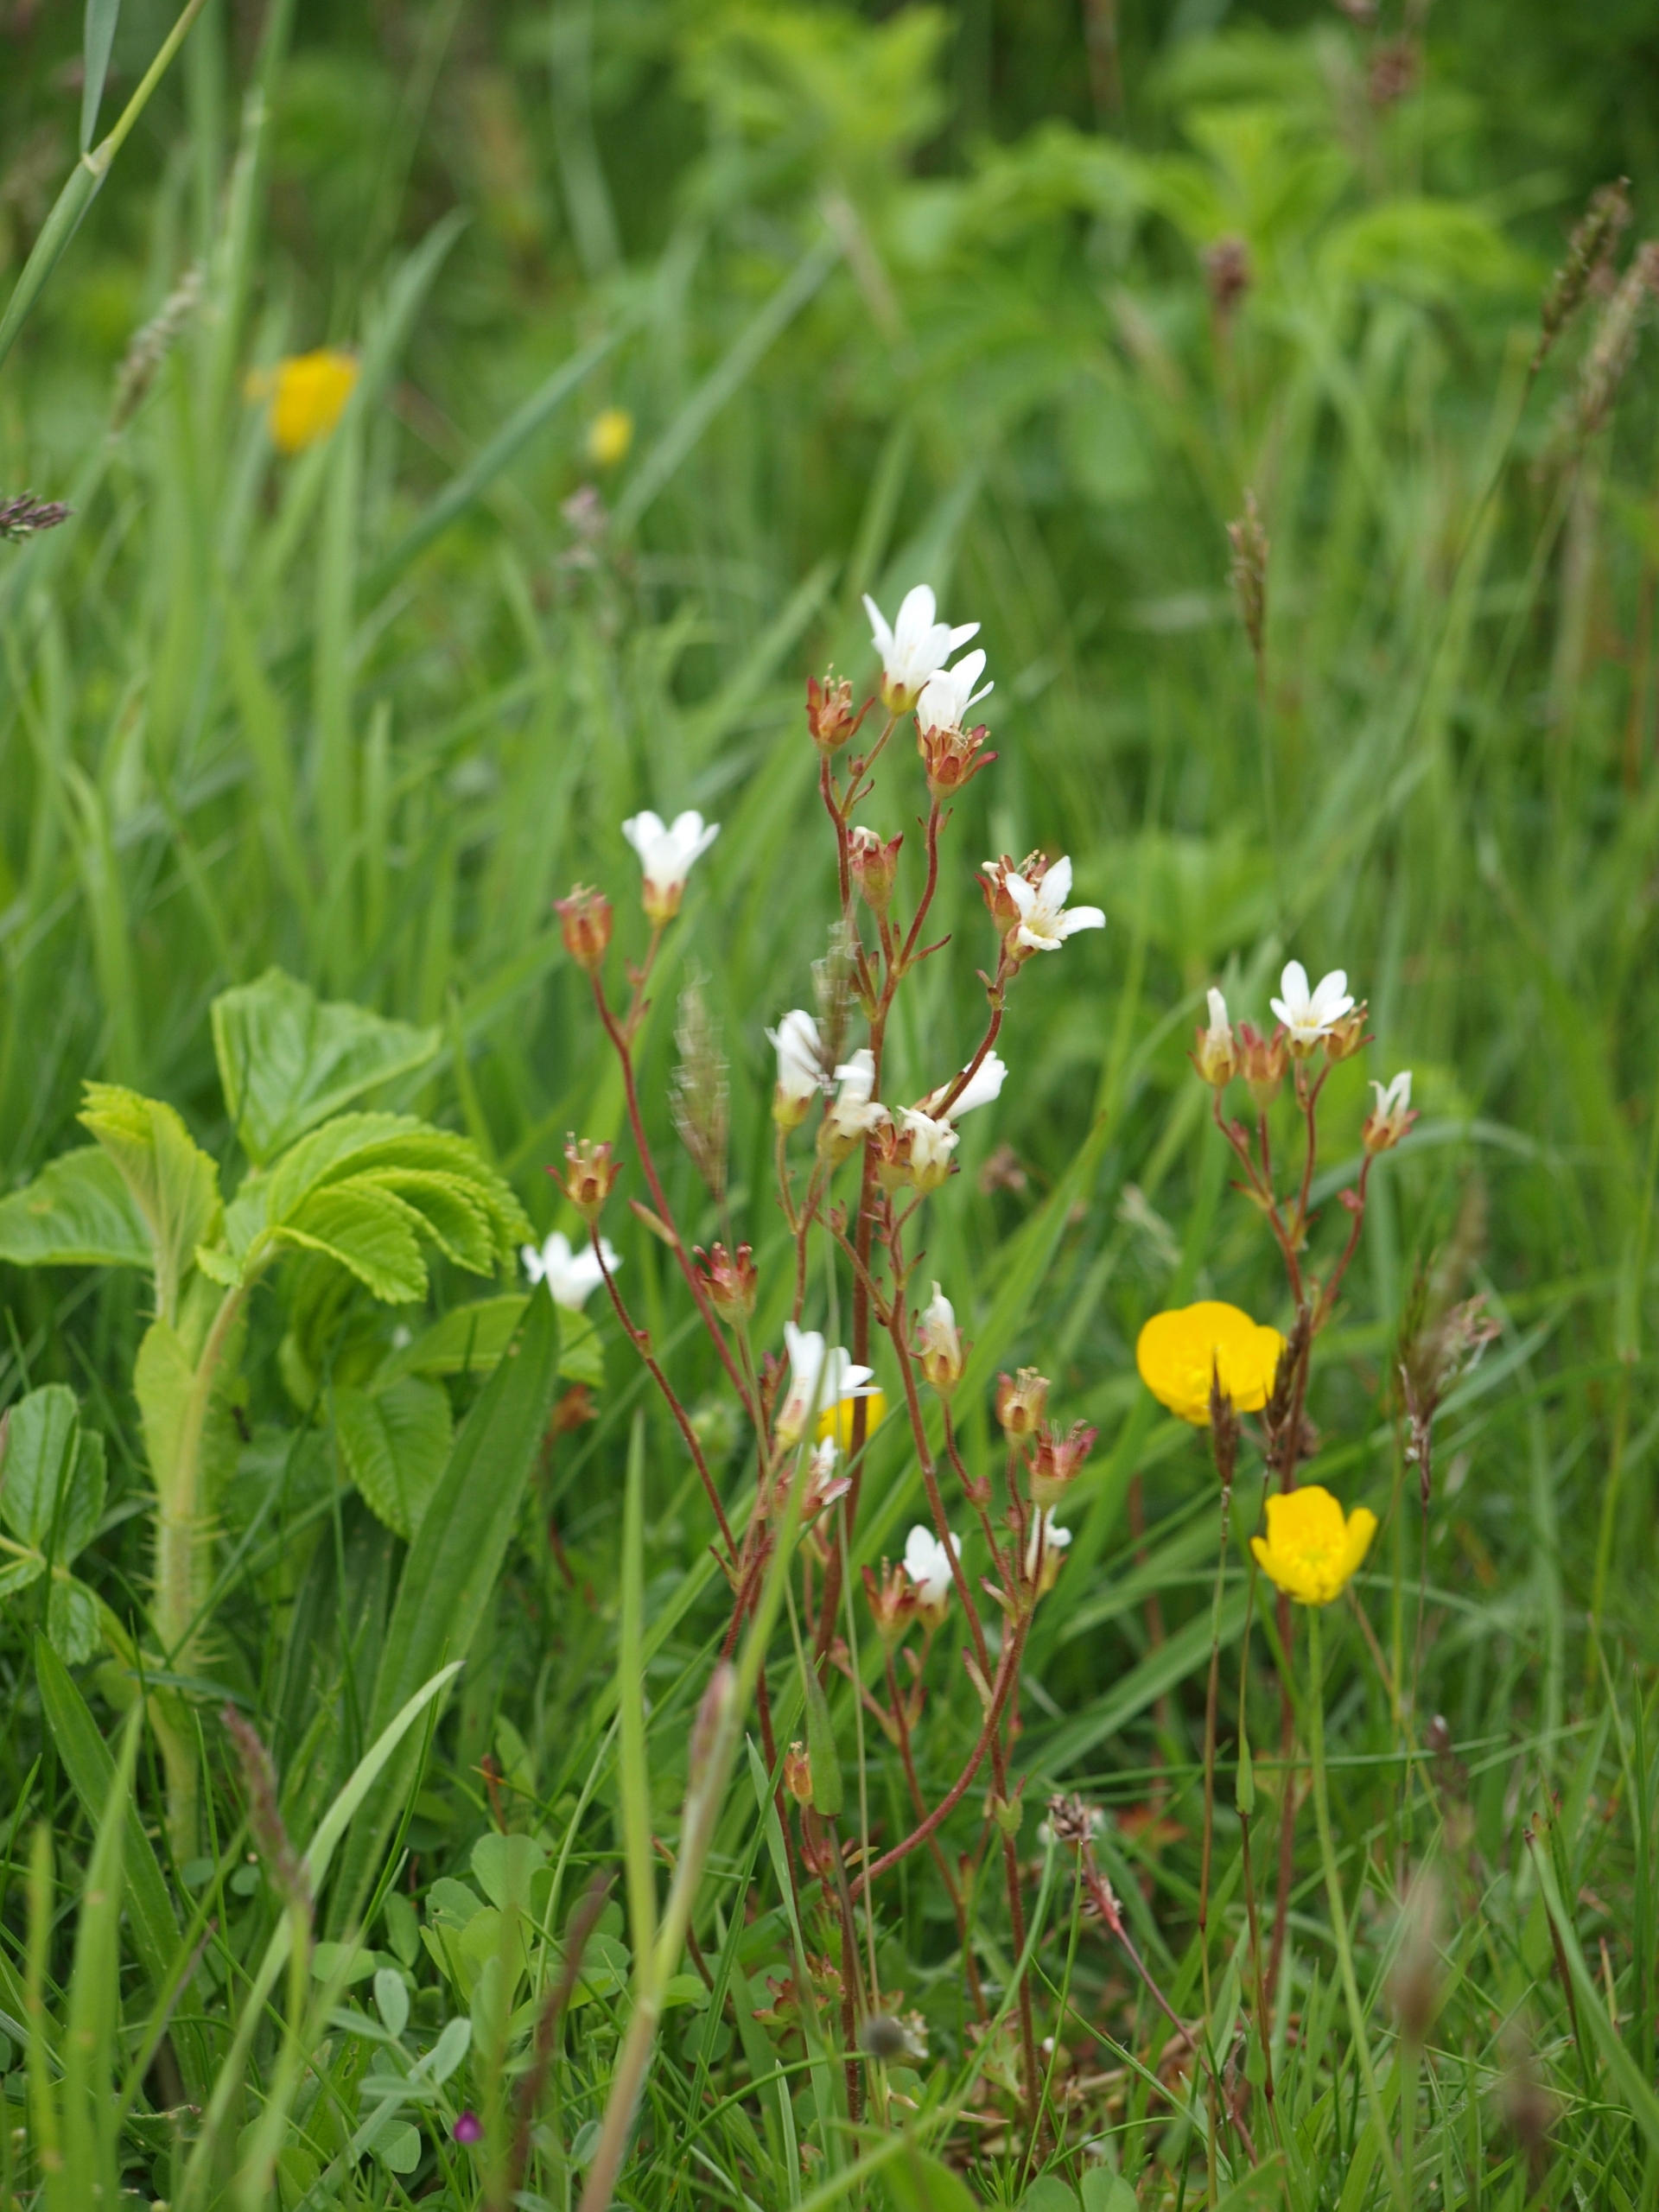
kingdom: Plantae
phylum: Tracheophyta
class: Magnoliopsida
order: Saxifragales
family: Saxifragaceae
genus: Saxifraga
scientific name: Saxifraga granulata
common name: Kornet stenbræk
